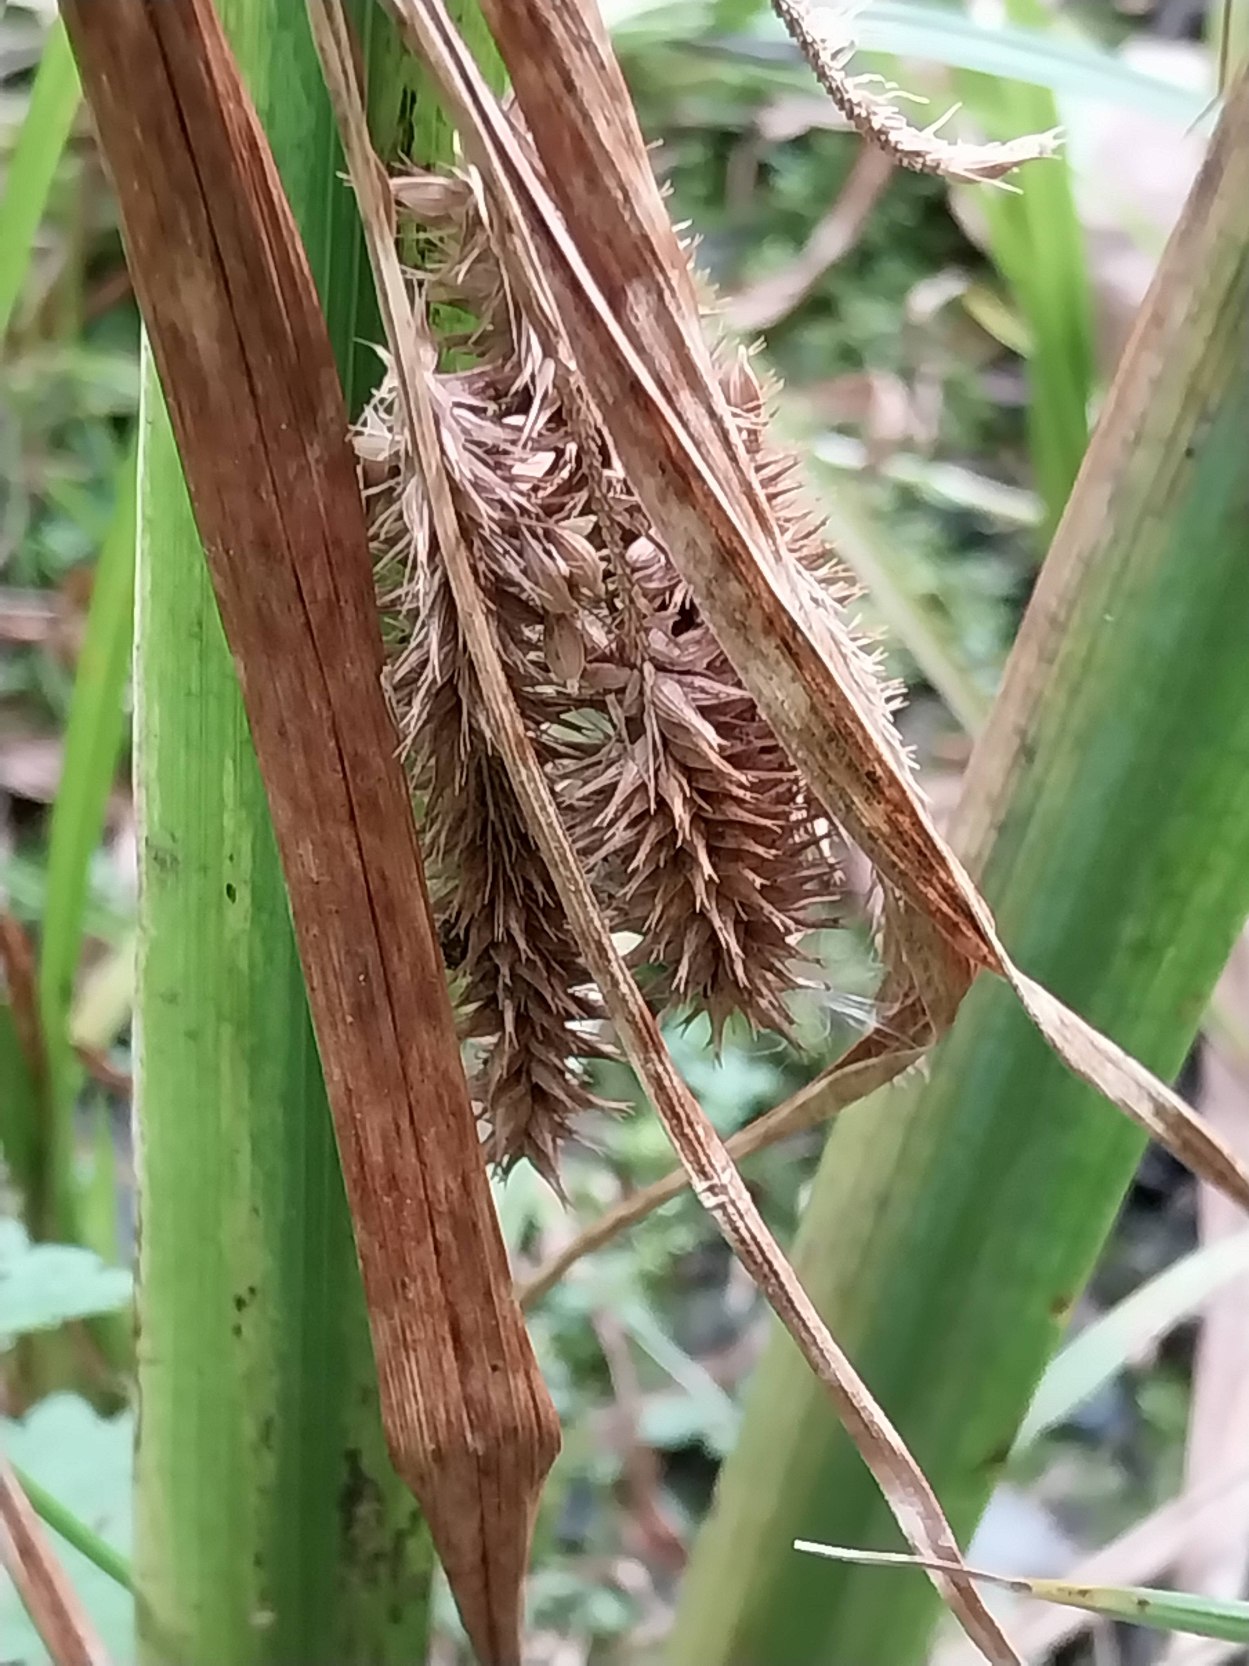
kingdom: Plantae
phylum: Tracheophyta
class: Liliopsida
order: Poales
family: Cyperaceae
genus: Carex
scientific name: Carex pseudocyperus
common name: Knippe-star
